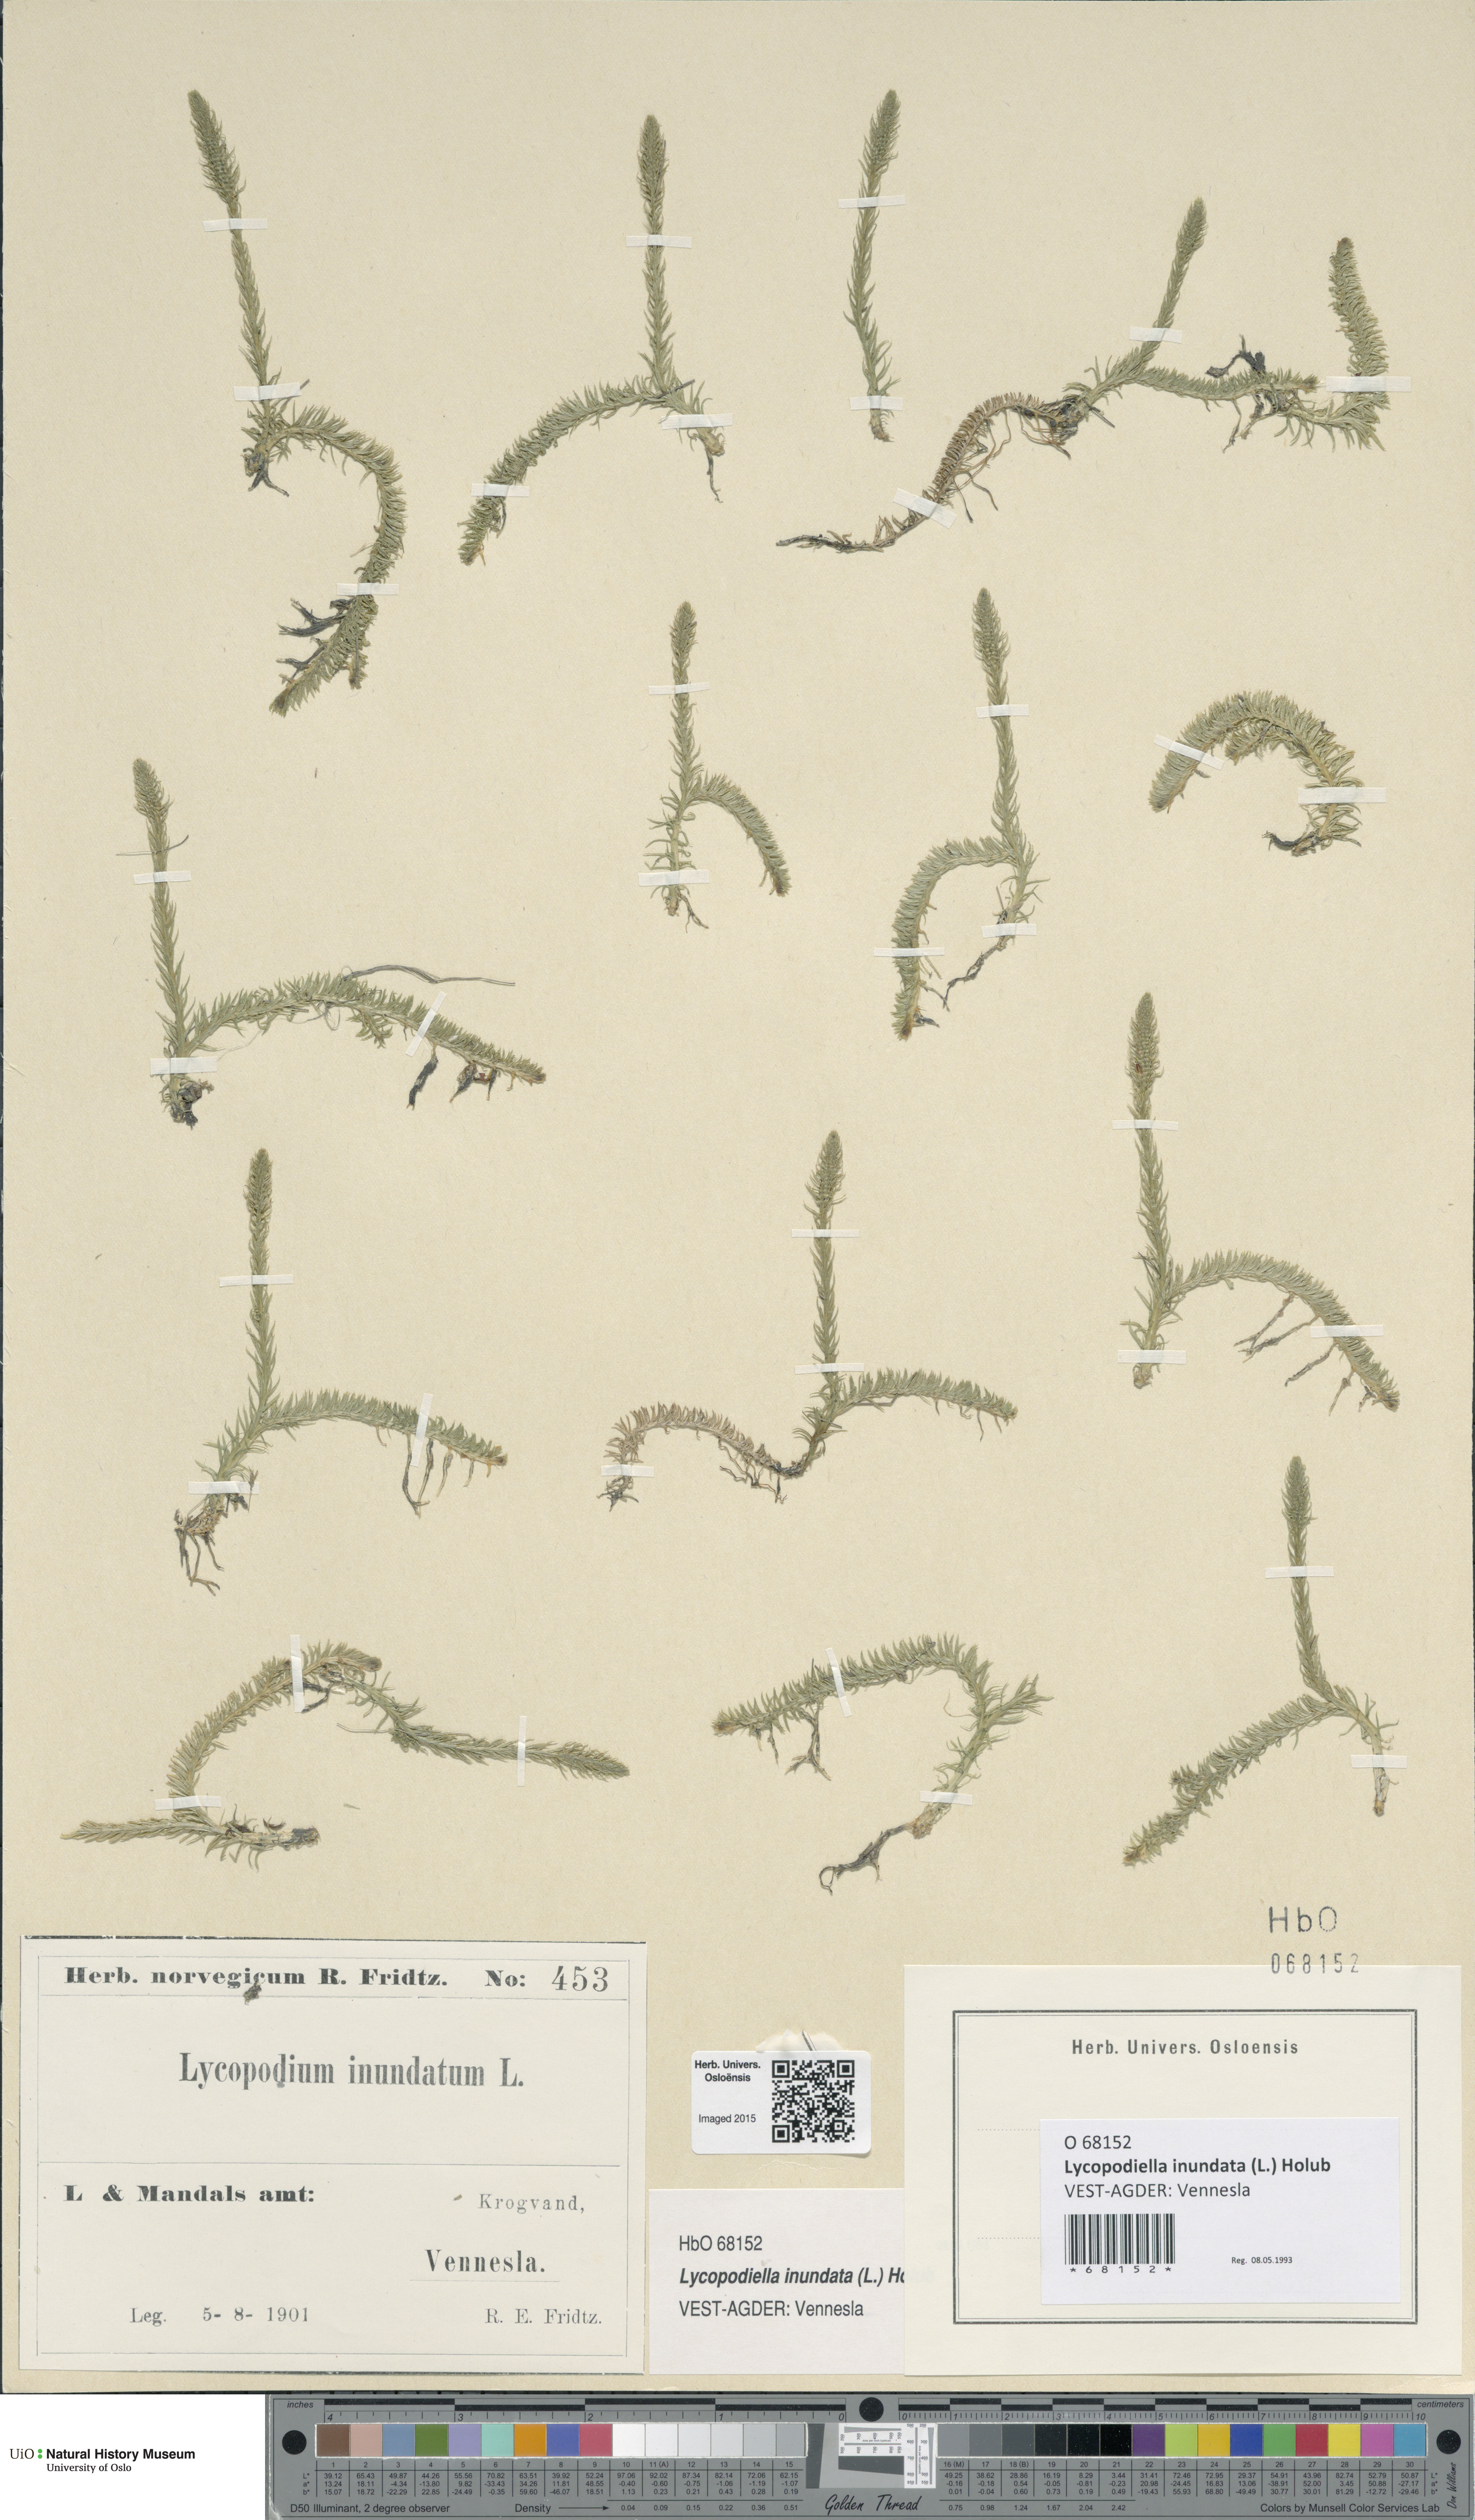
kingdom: Plantae
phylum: Tracheophyta
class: Lycopodiopsida
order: Lycopodiales
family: Lycopodiaceae
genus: Lycopodiella
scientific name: Lycopodiella inundata
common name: Marsh clubmoss
